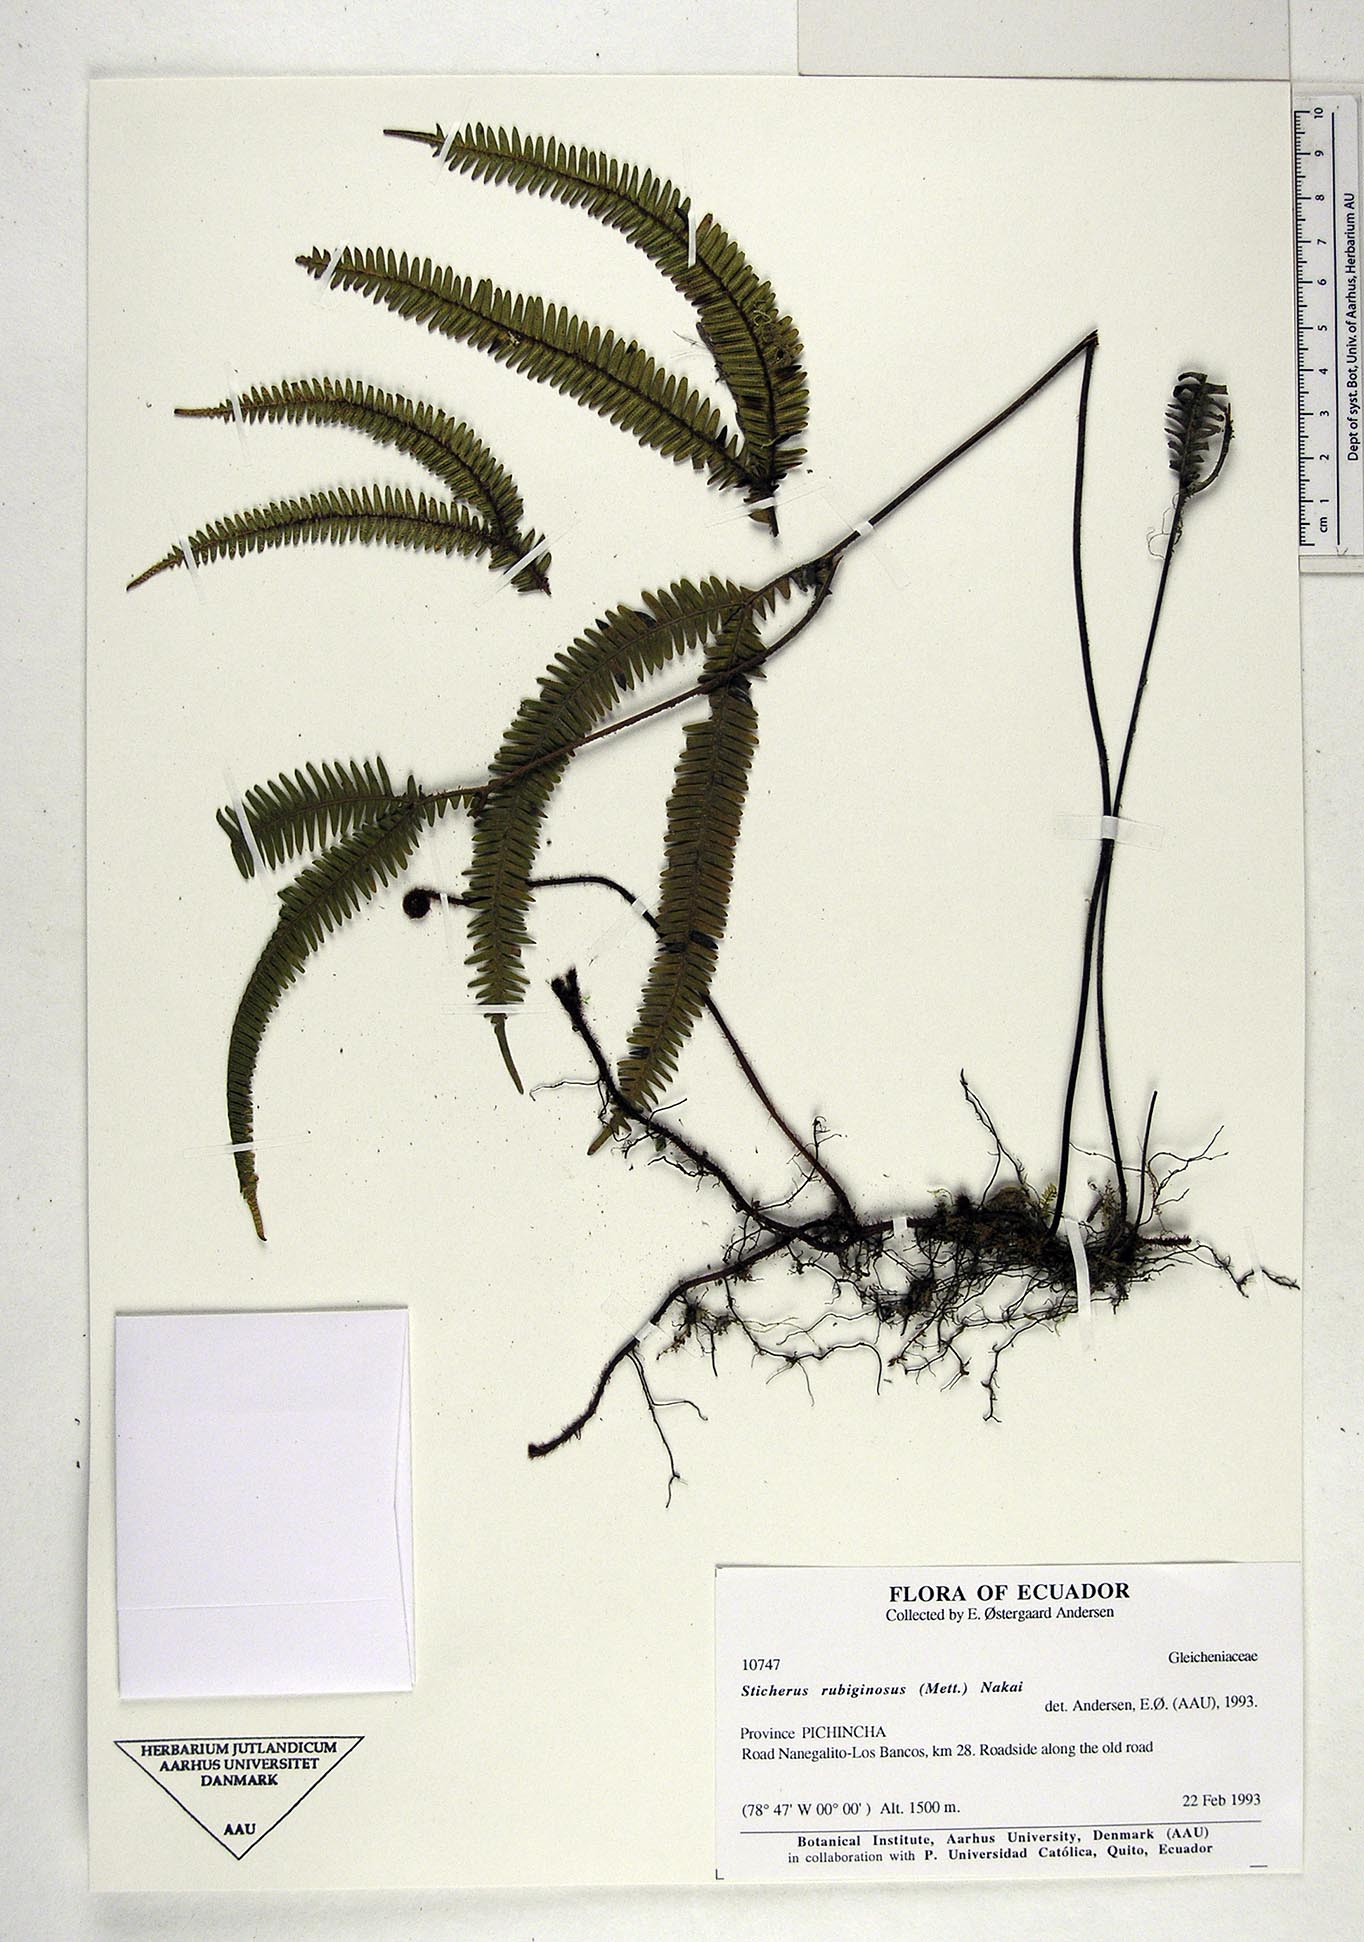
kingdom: Plantae
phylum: Tracheophyta
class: Polypodiopsida
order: Gleicheniales
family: Gleicheniaceae
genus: Sticherus
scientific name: Sticherus rubiginosus
